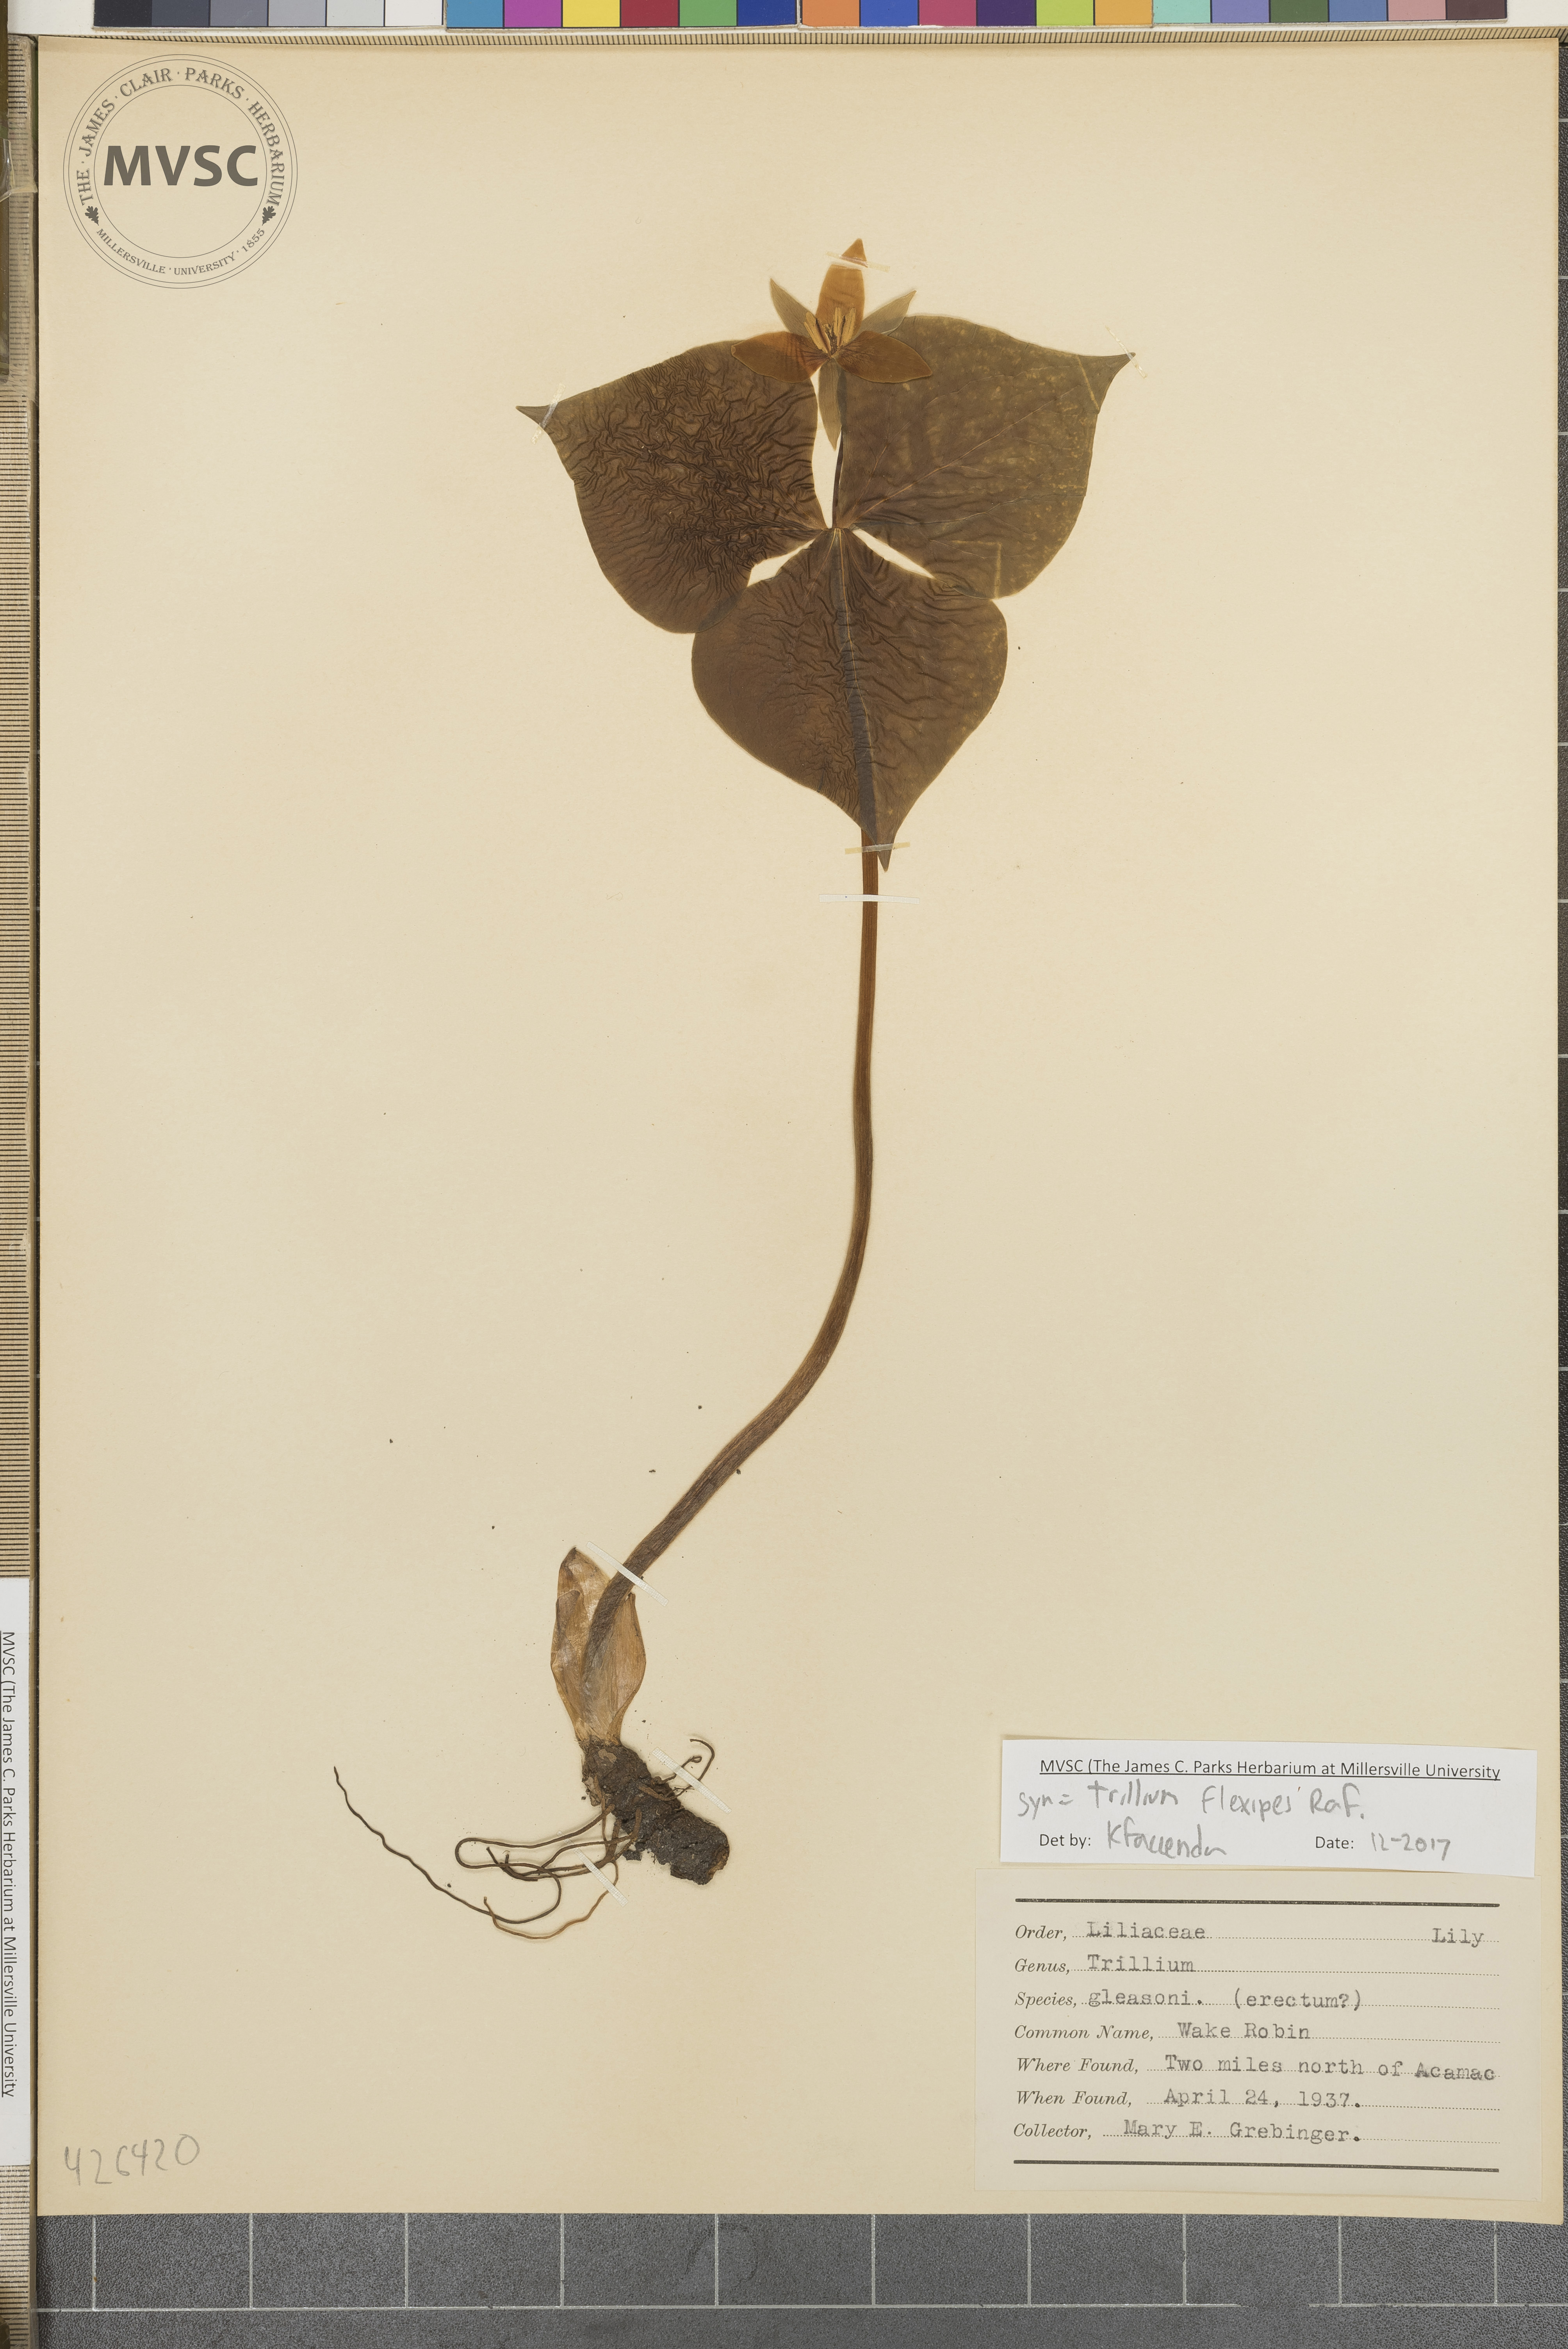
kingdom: Plantae
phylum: Tracheophyta
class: Liliopsida
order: Liliales
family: Melanthiaceae
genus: Trillium
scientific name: Trillium flexipes
